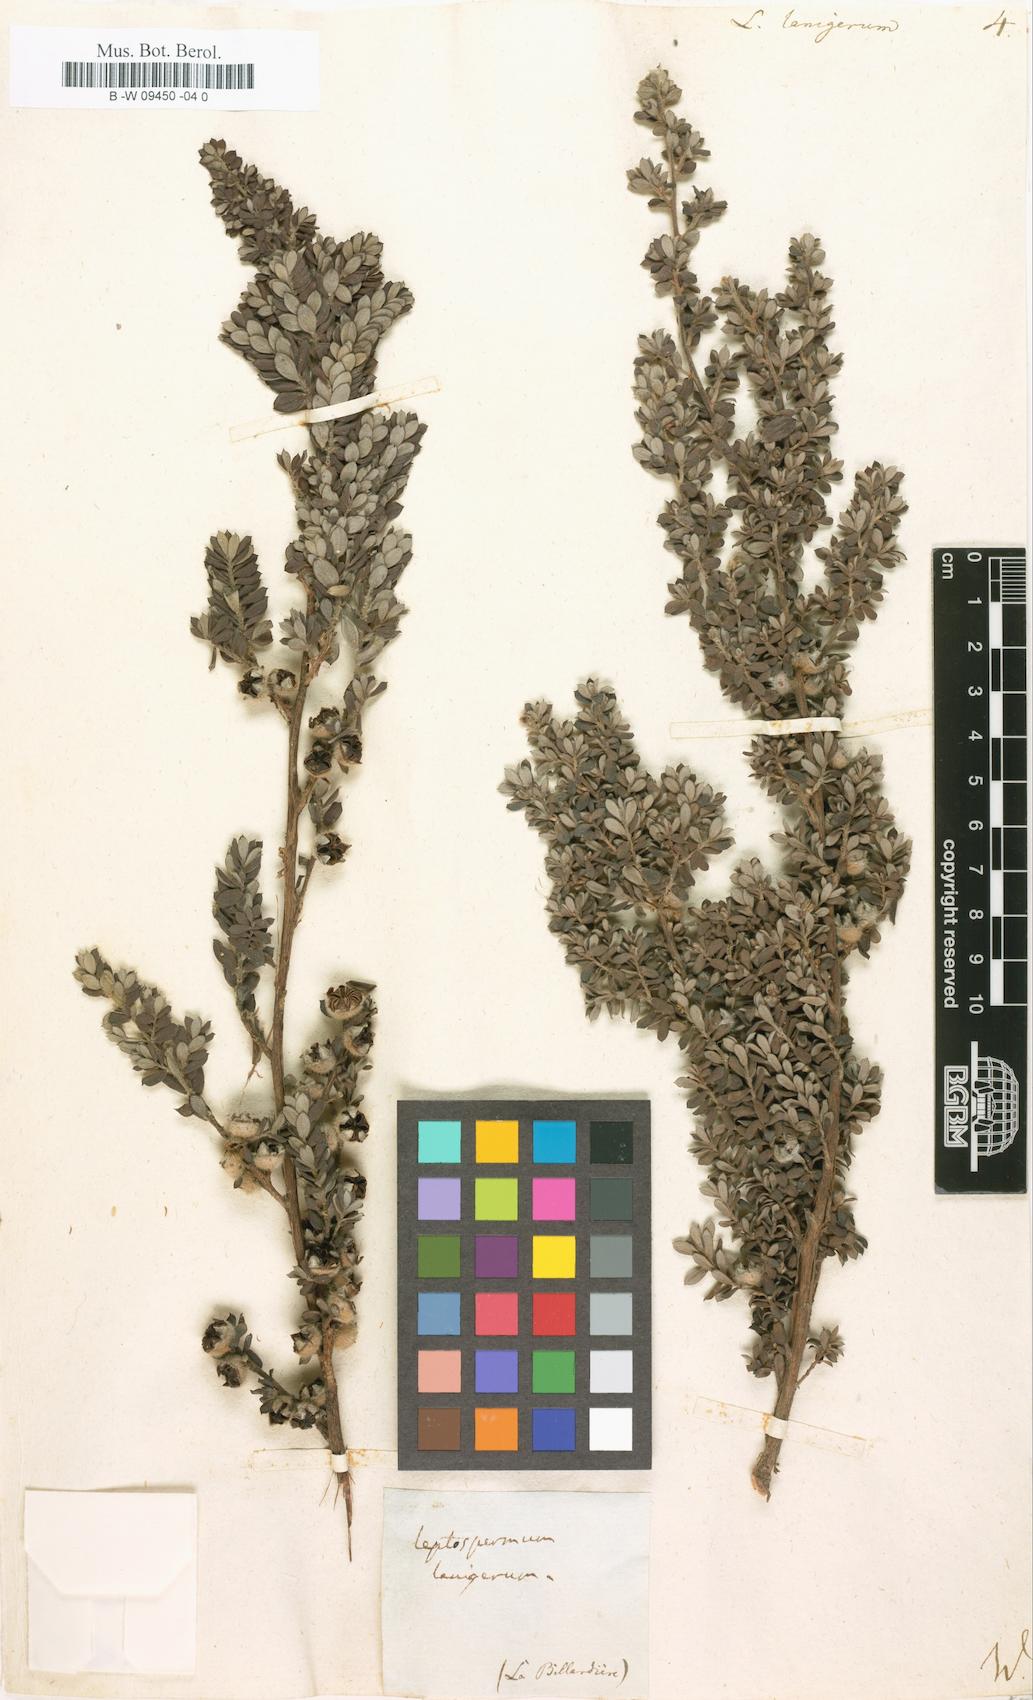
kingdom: Plantae
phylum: Tracheophyta
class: Magnoliopsida
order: Myrtales
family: Myrtaceae
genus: Leptospermum
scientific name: Leptospermum lanigerum
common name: Woolly tea-tree
